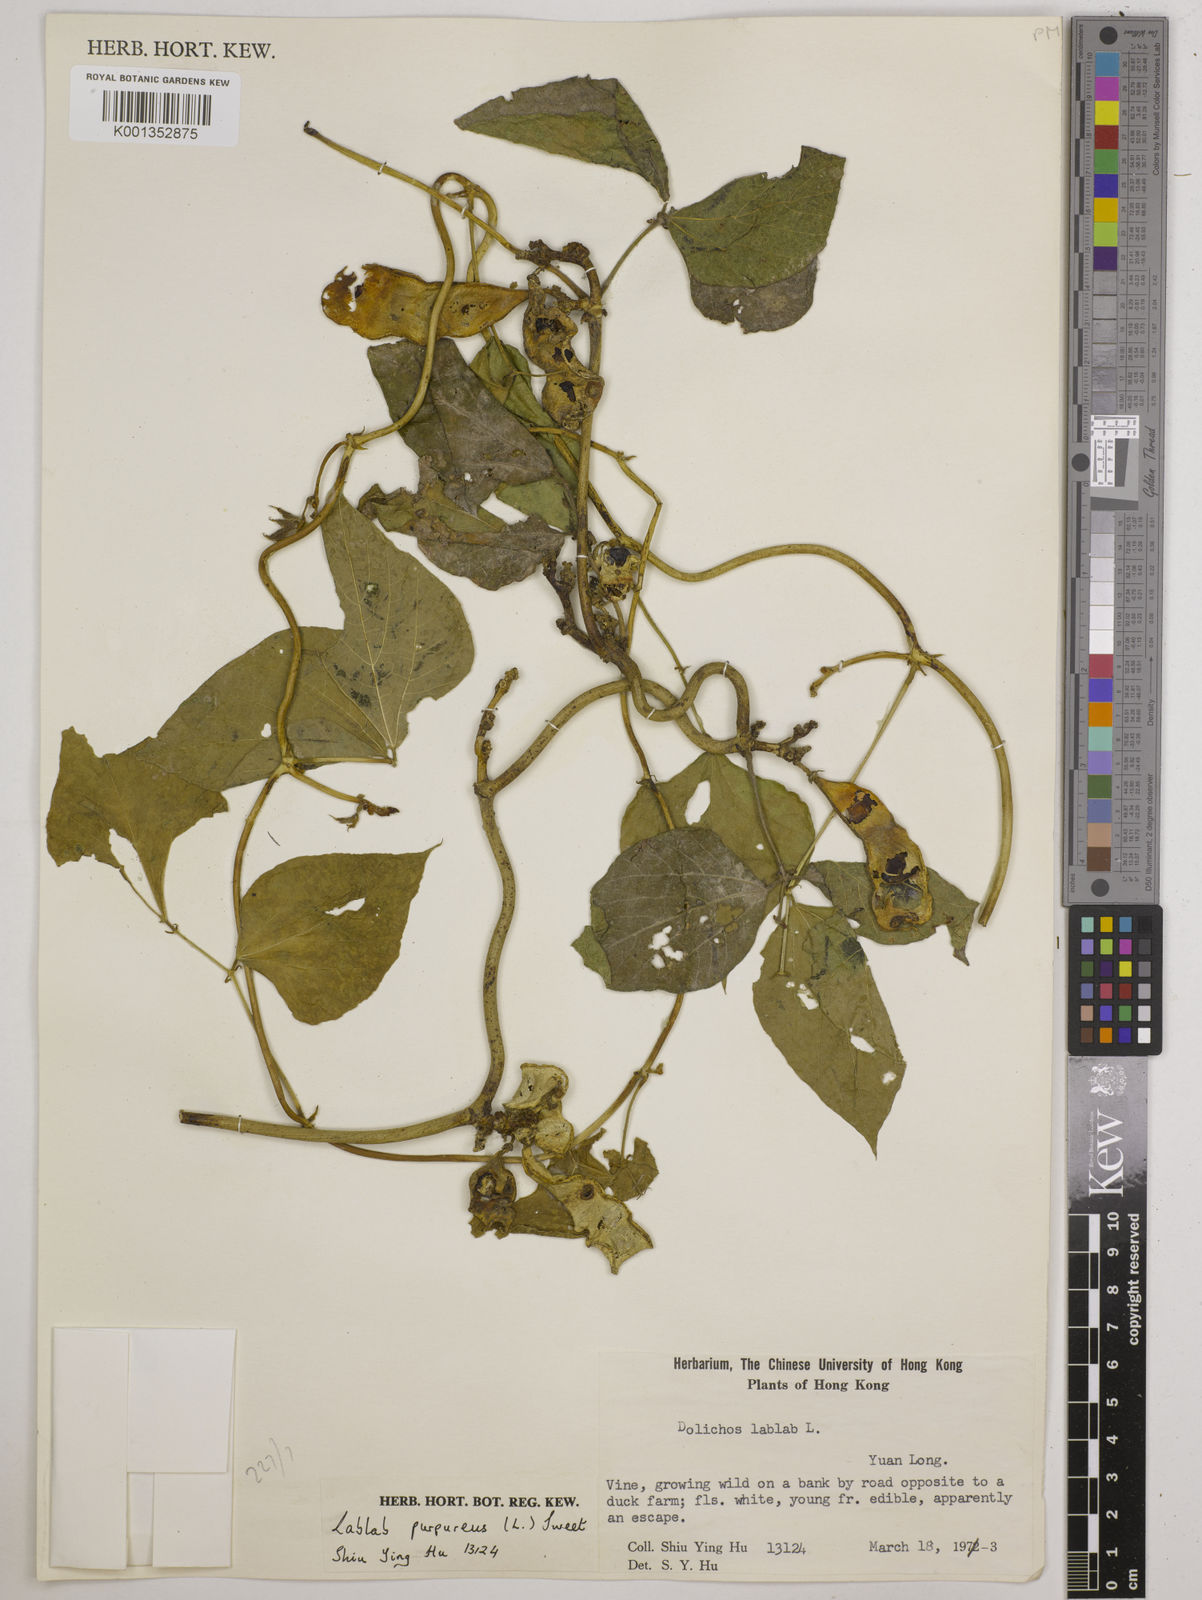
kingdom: Plantae
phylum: Tracheophyta
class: Magnoliopsida
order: Fabales
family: Fabaceae
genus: Lablab
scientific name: Lablab purpureus
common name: Lablab-bean
